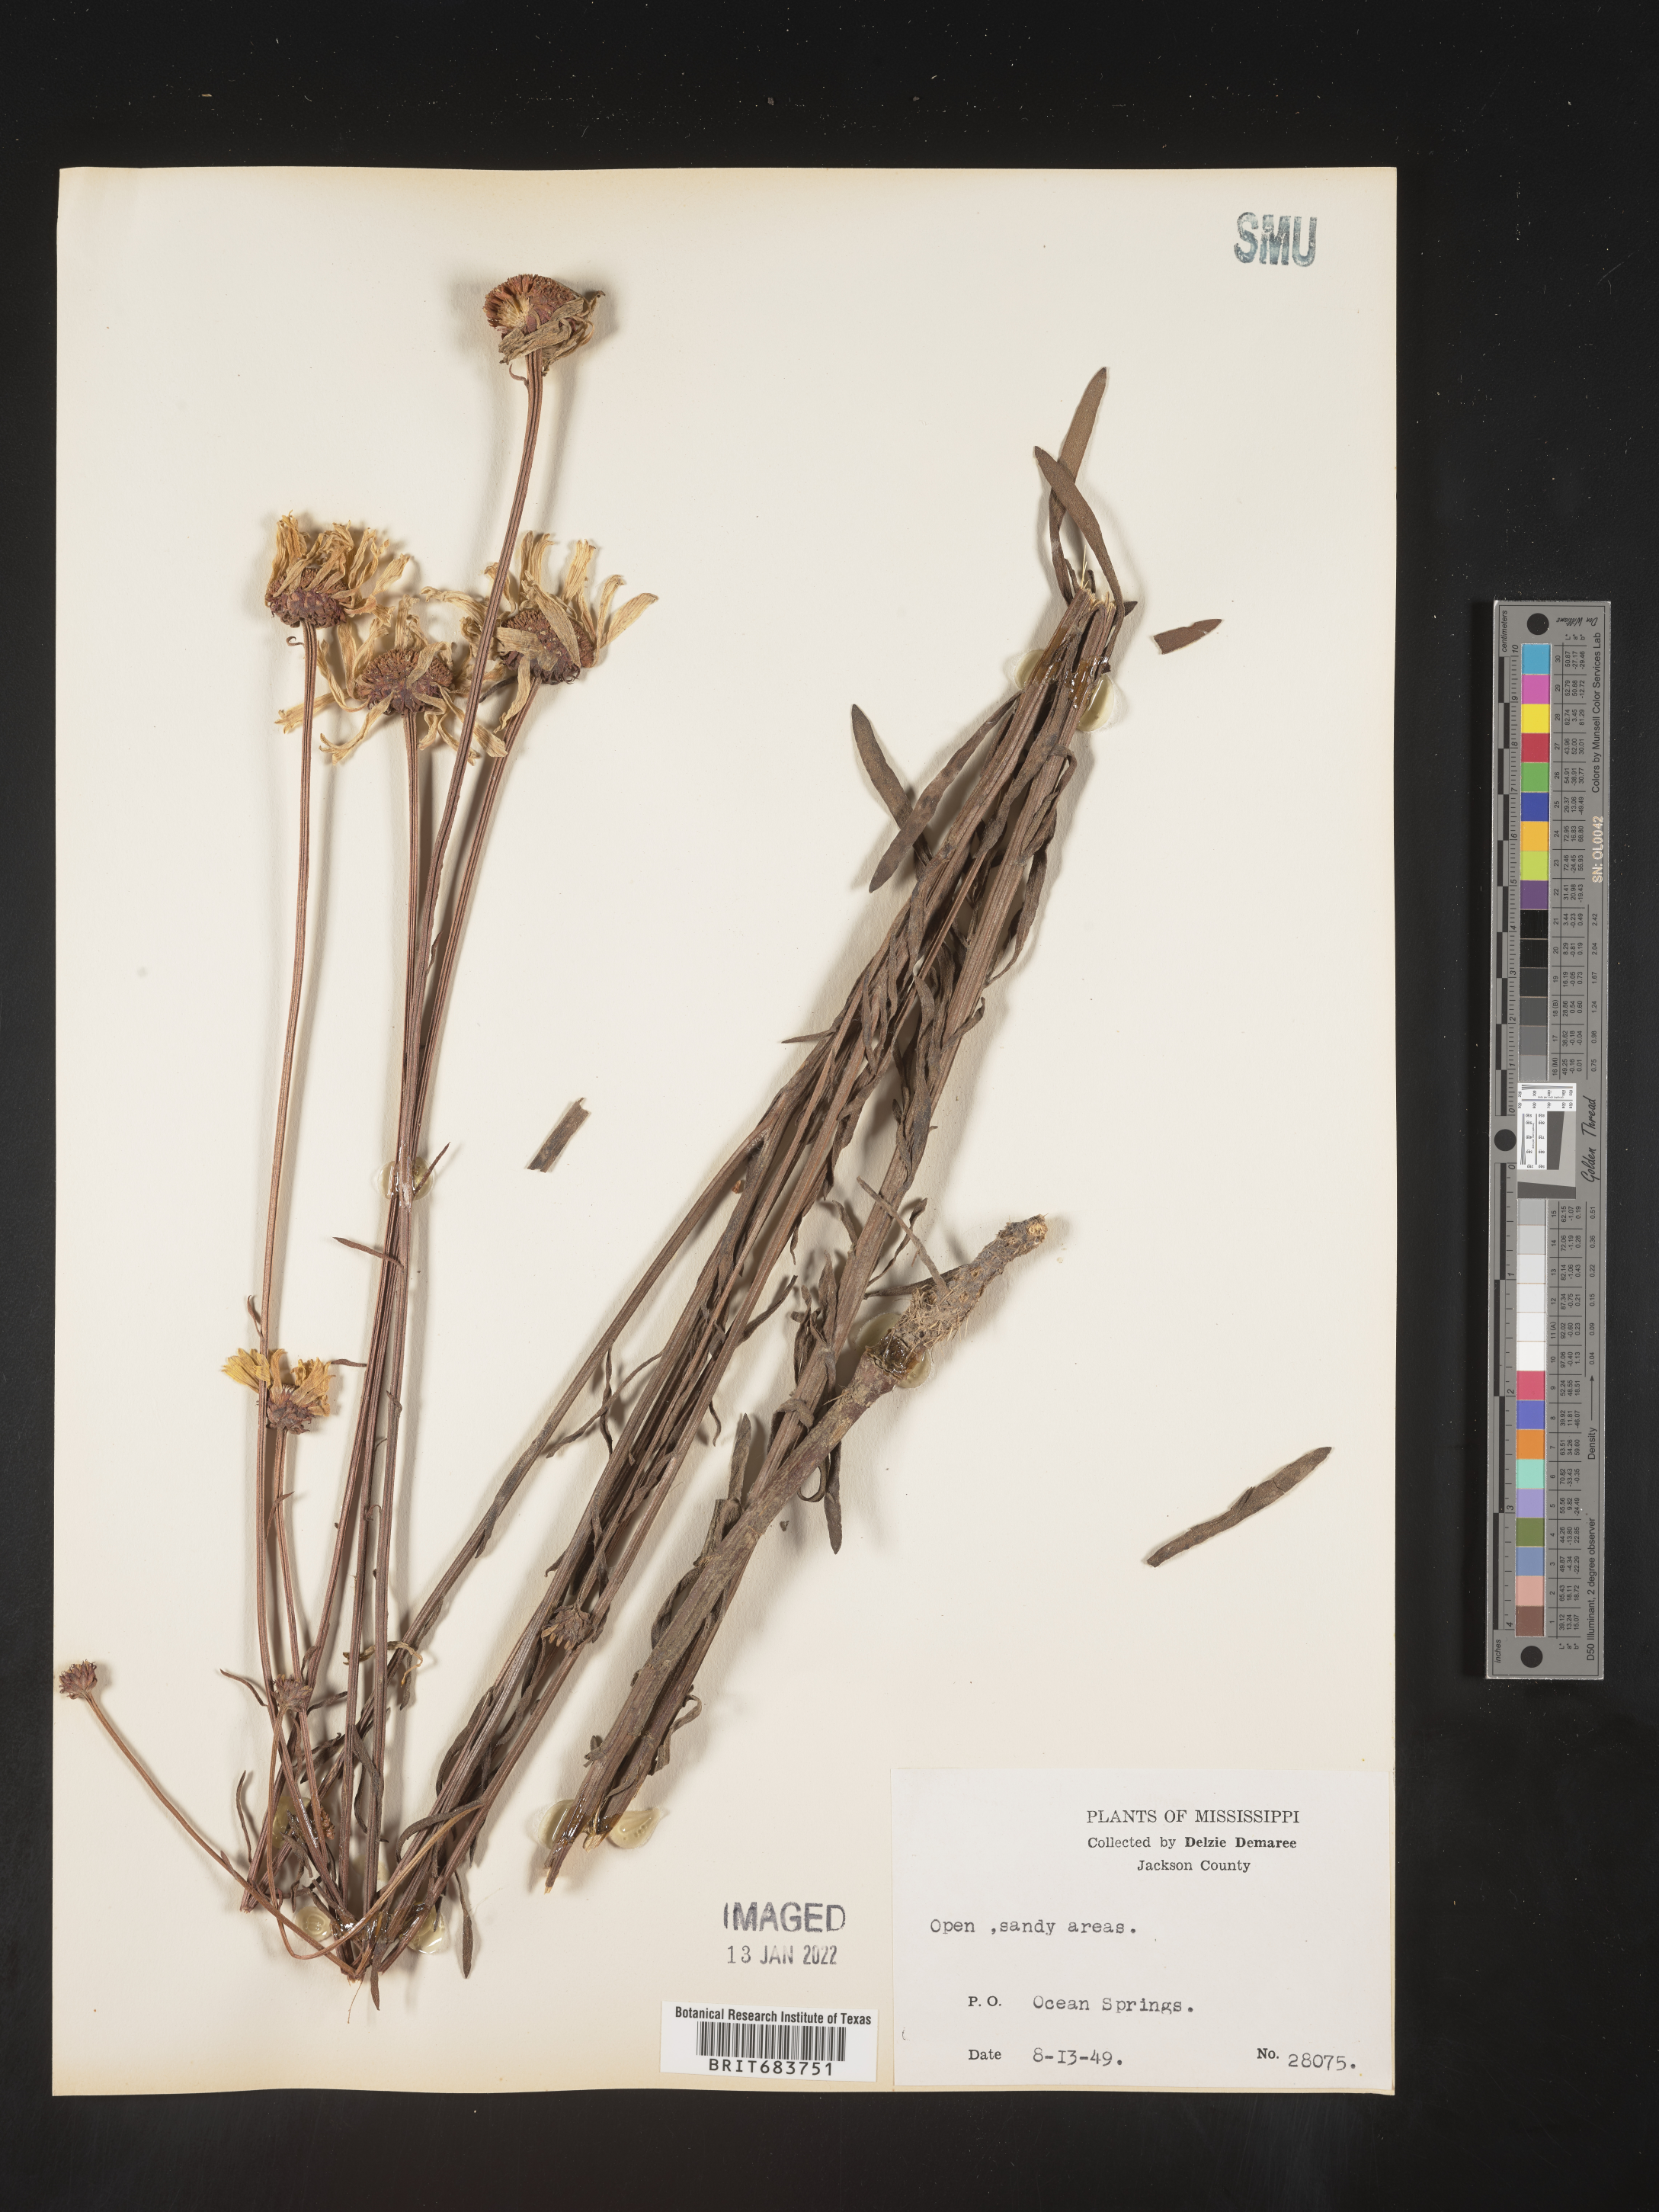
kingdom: Plantae
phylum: Tracheophyta
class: Magnoliopsida
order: Asterales
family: Asteraceae
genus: Balduina
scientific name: Balduina uniflora
